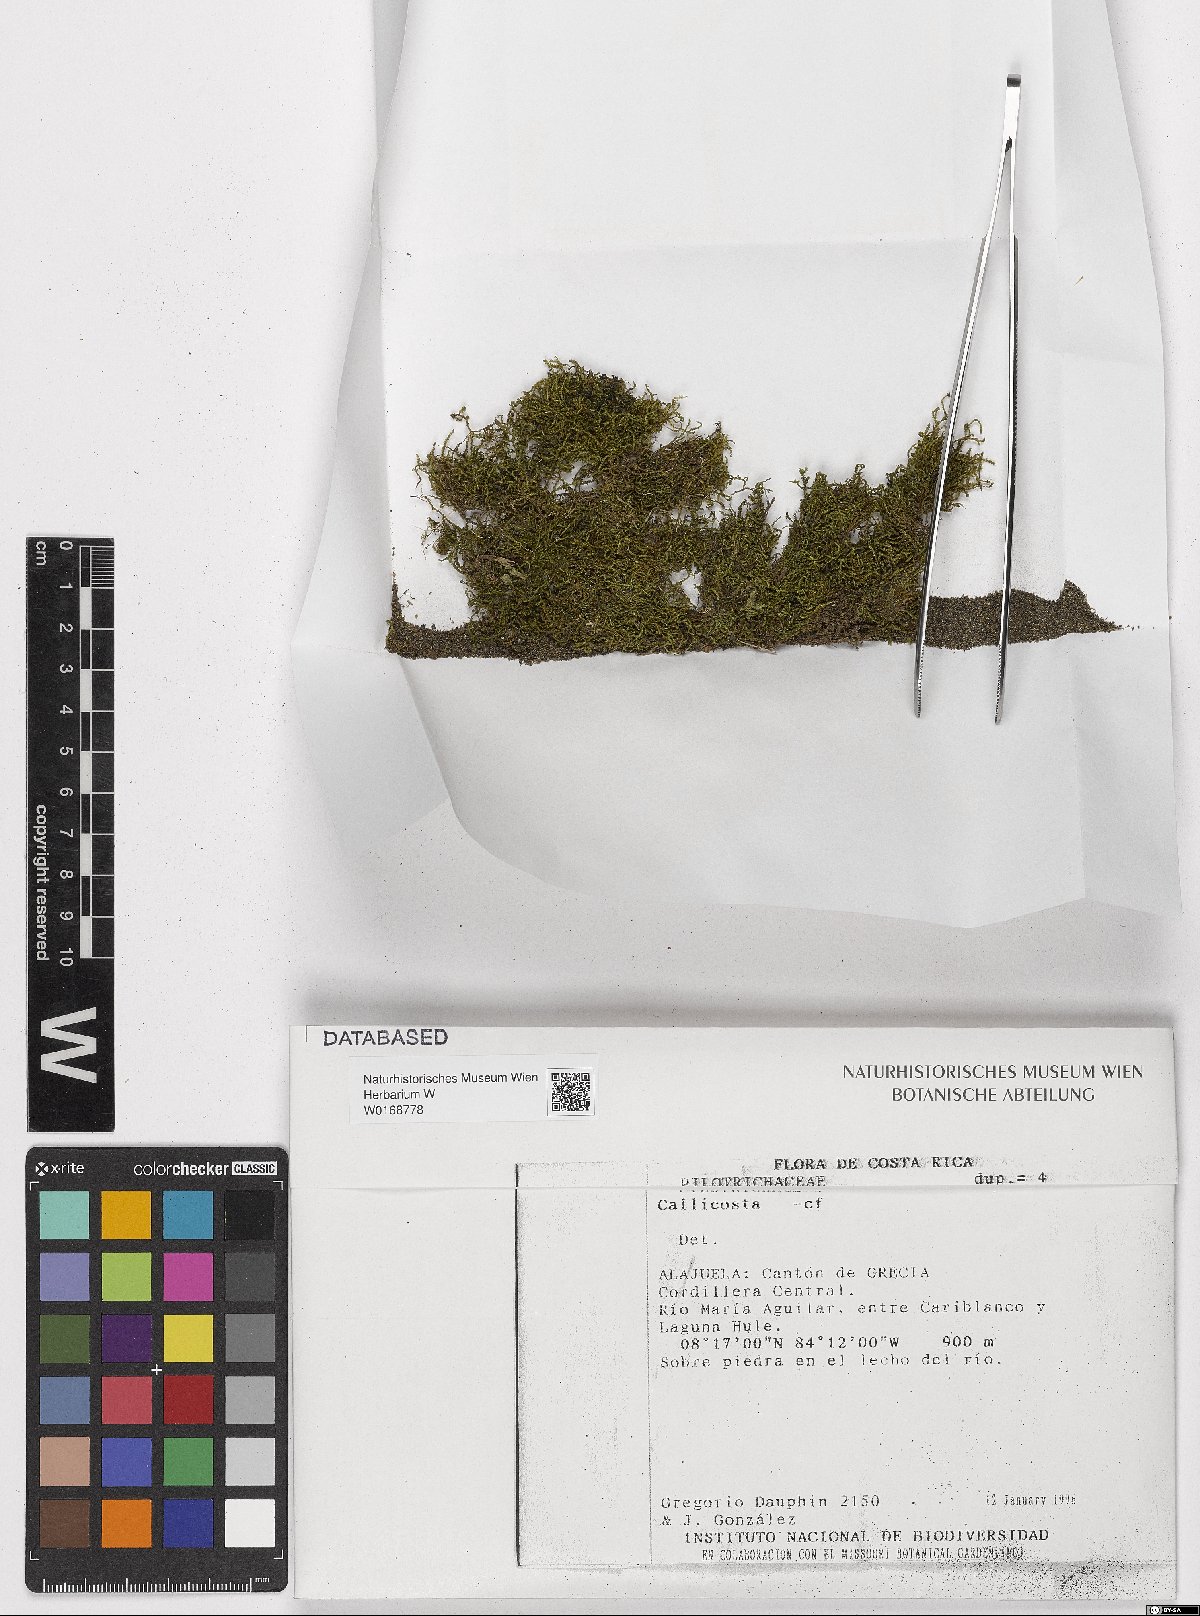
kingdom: Plantae
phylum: Bryophyta
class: Bryopsida
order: Hookeriales
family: Pilotrichaceae
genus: Pilotrichum
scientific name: Pilotrichum
